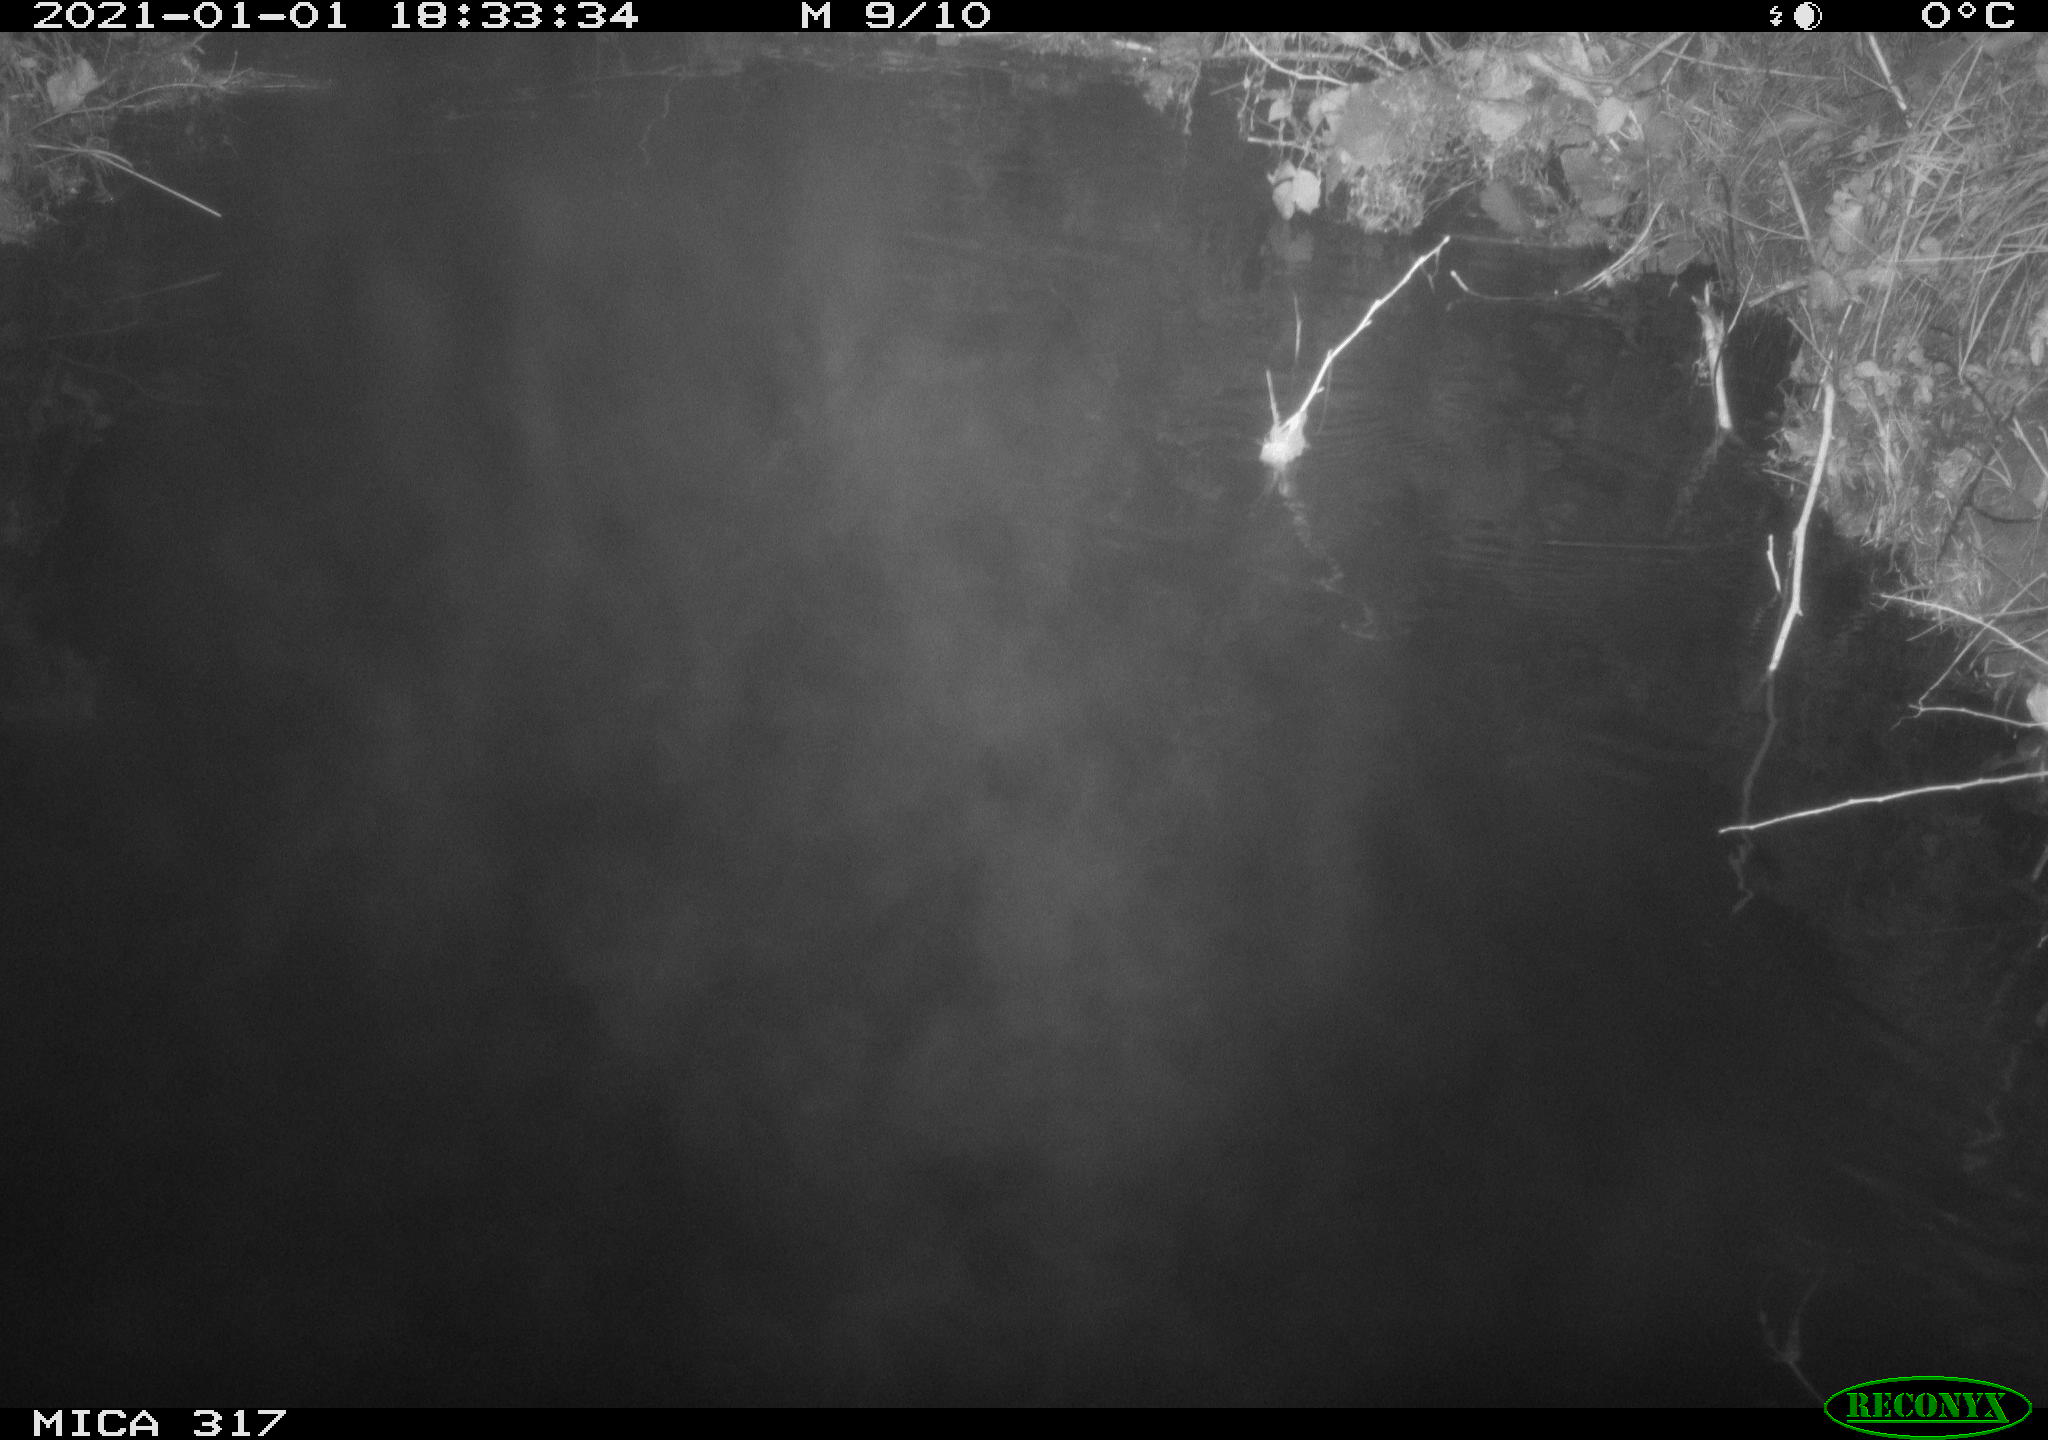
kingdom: Animalia
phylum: Chordata
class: Aves
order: Anseriformes
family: Anatidae
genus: Anas
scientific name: Anas platyrhynchos
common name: Mallard
